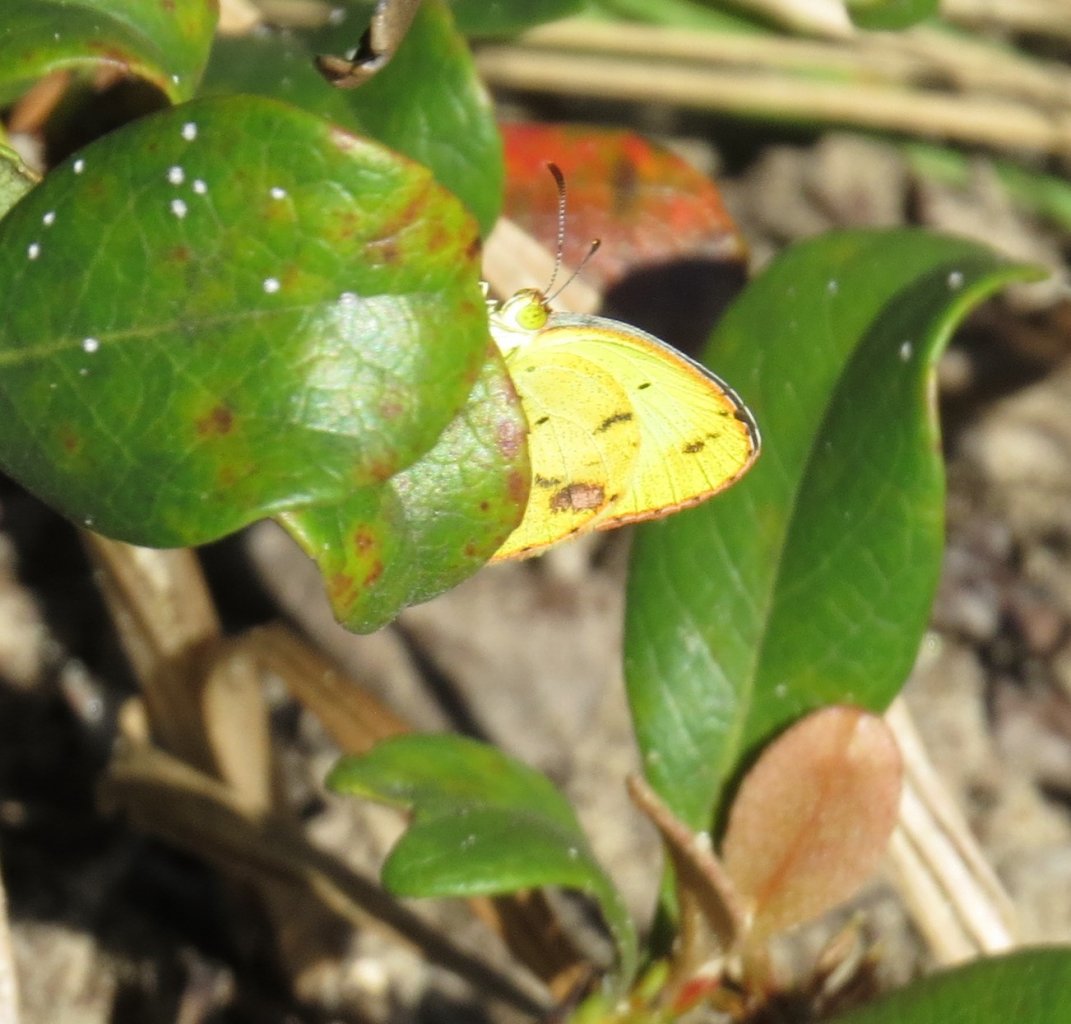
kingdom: Animalia
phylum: Arthropoda
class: Insecta
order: Lepidoptera
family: Pieridae
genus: Pyrisitia
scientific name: Pyrisitia lisa
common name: Little Yellow
